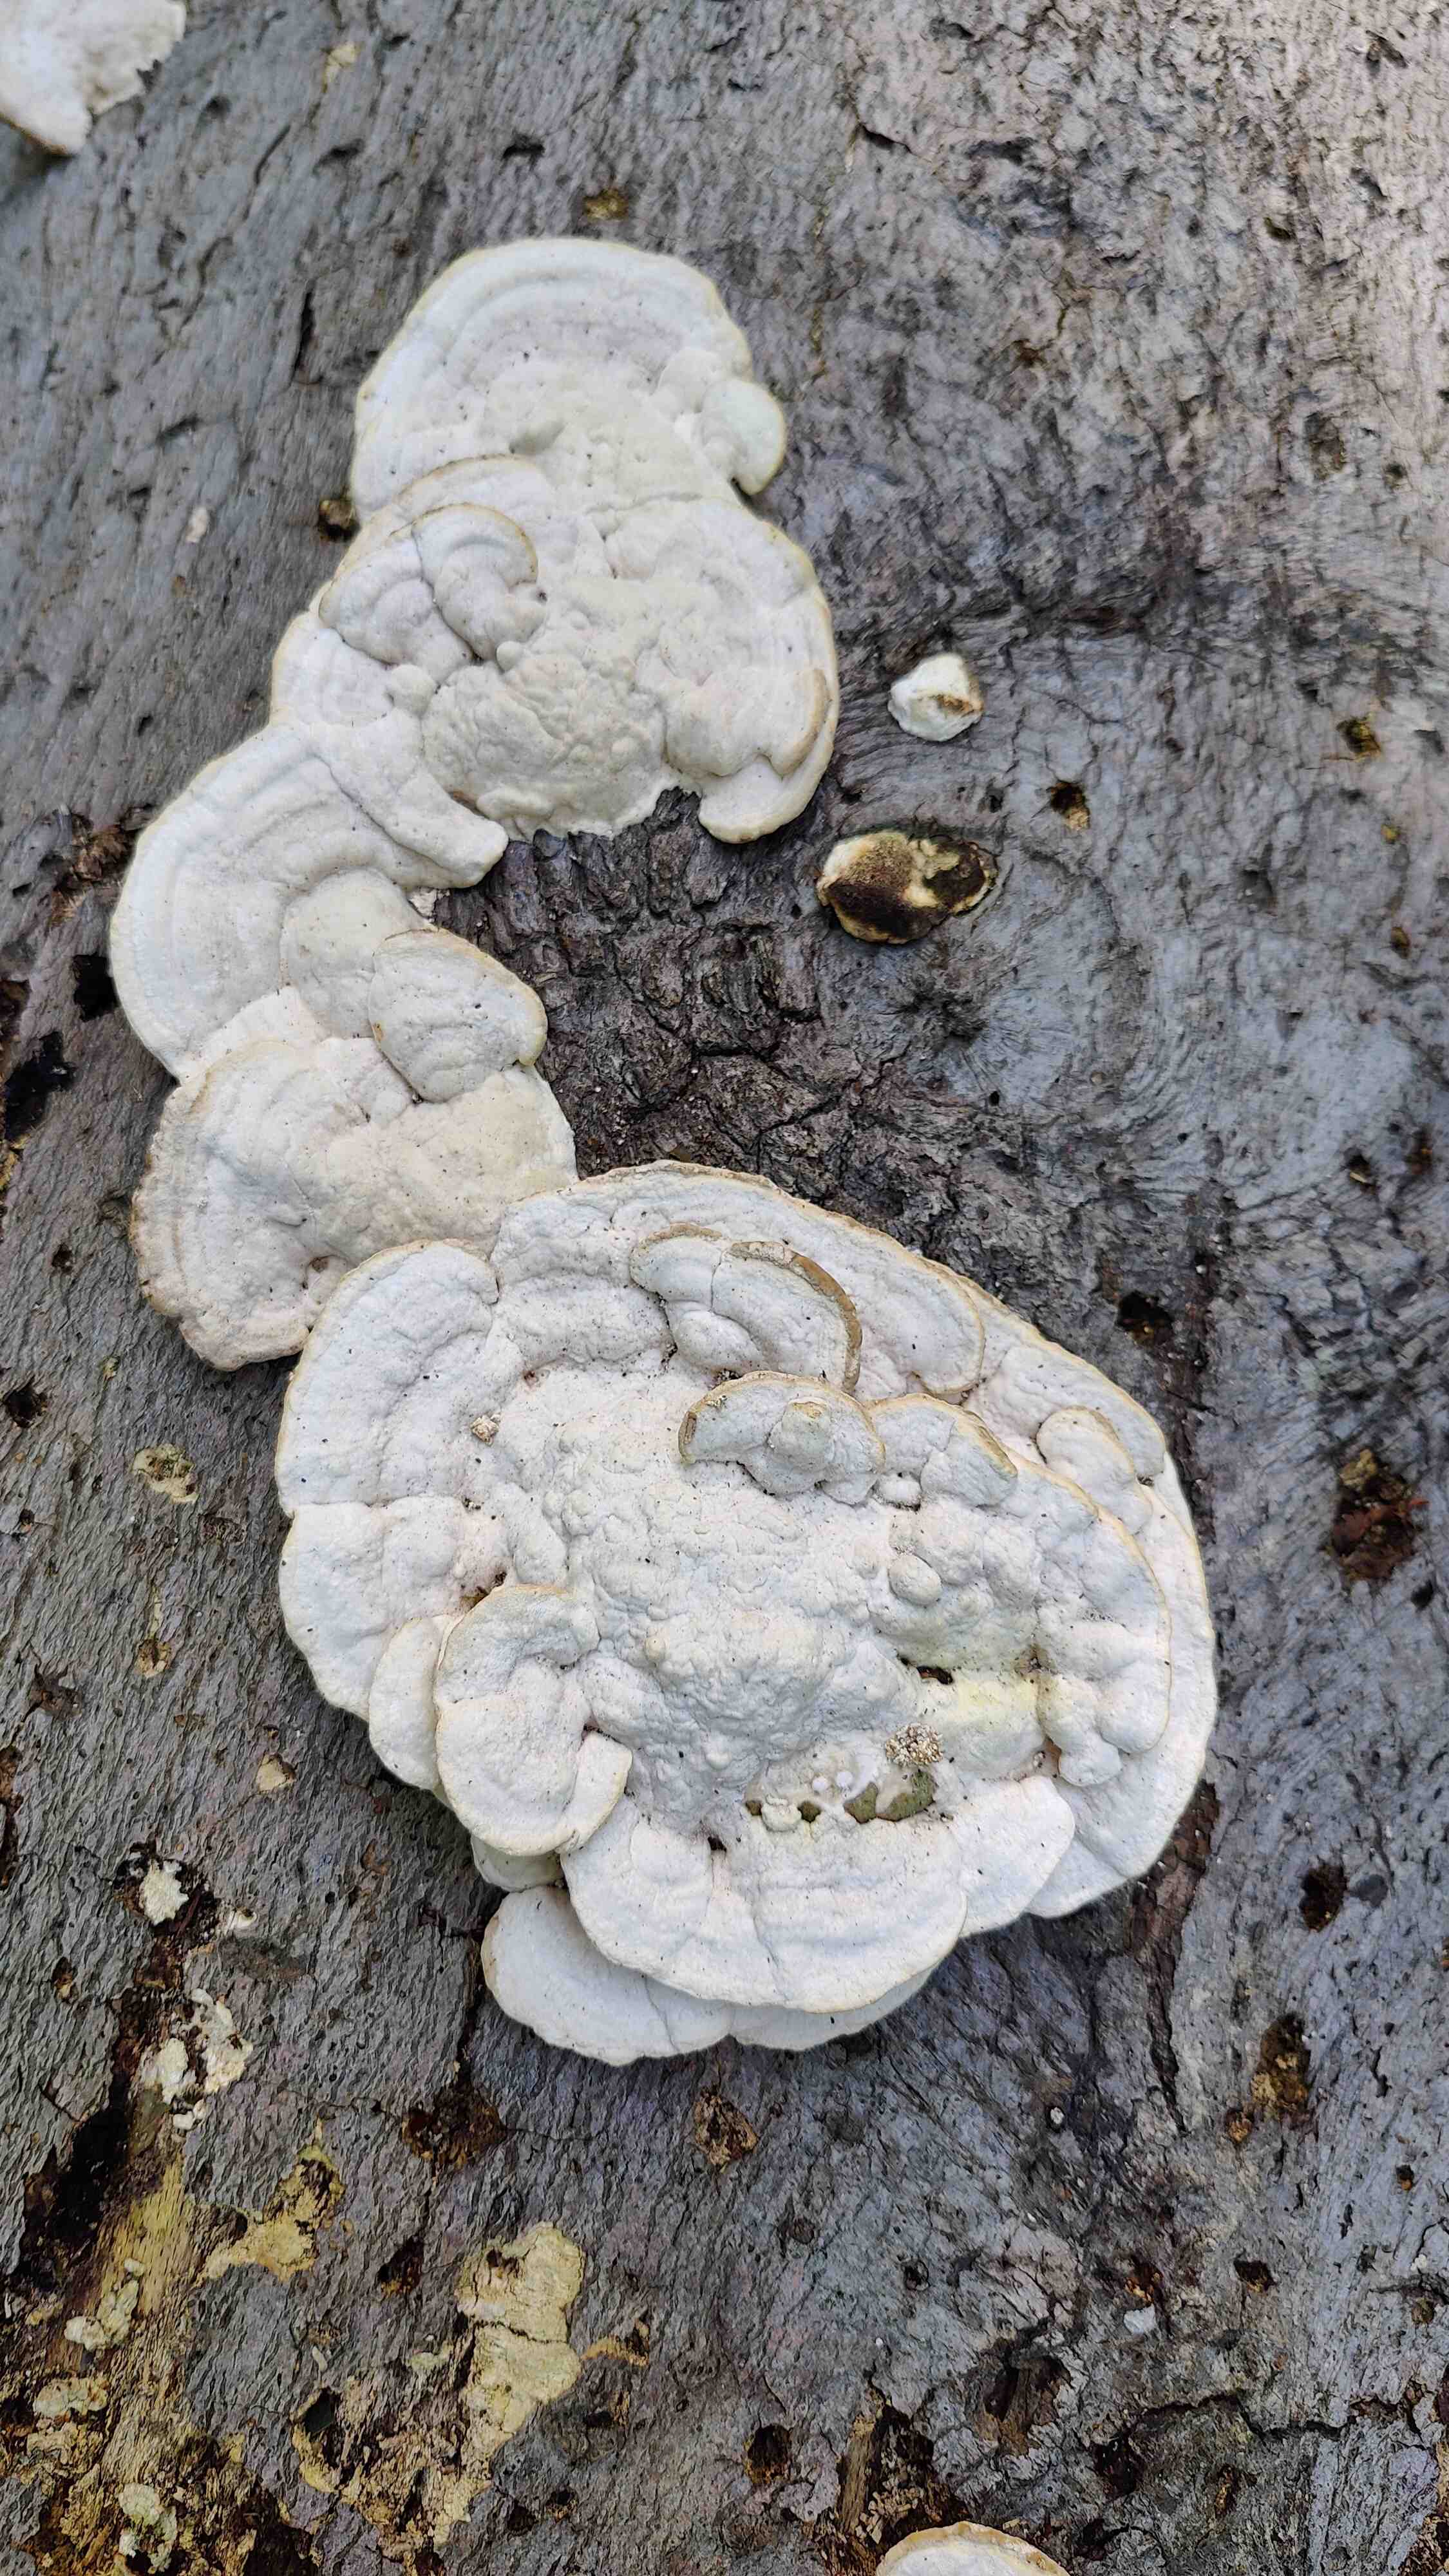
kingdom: Fungi
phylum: Basidiomycota
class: Agaricomycetes
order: Polyporales
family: Polyporaceae
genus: Trametes
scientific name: Trametes gibbosa
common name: puklet læderporesvamp
